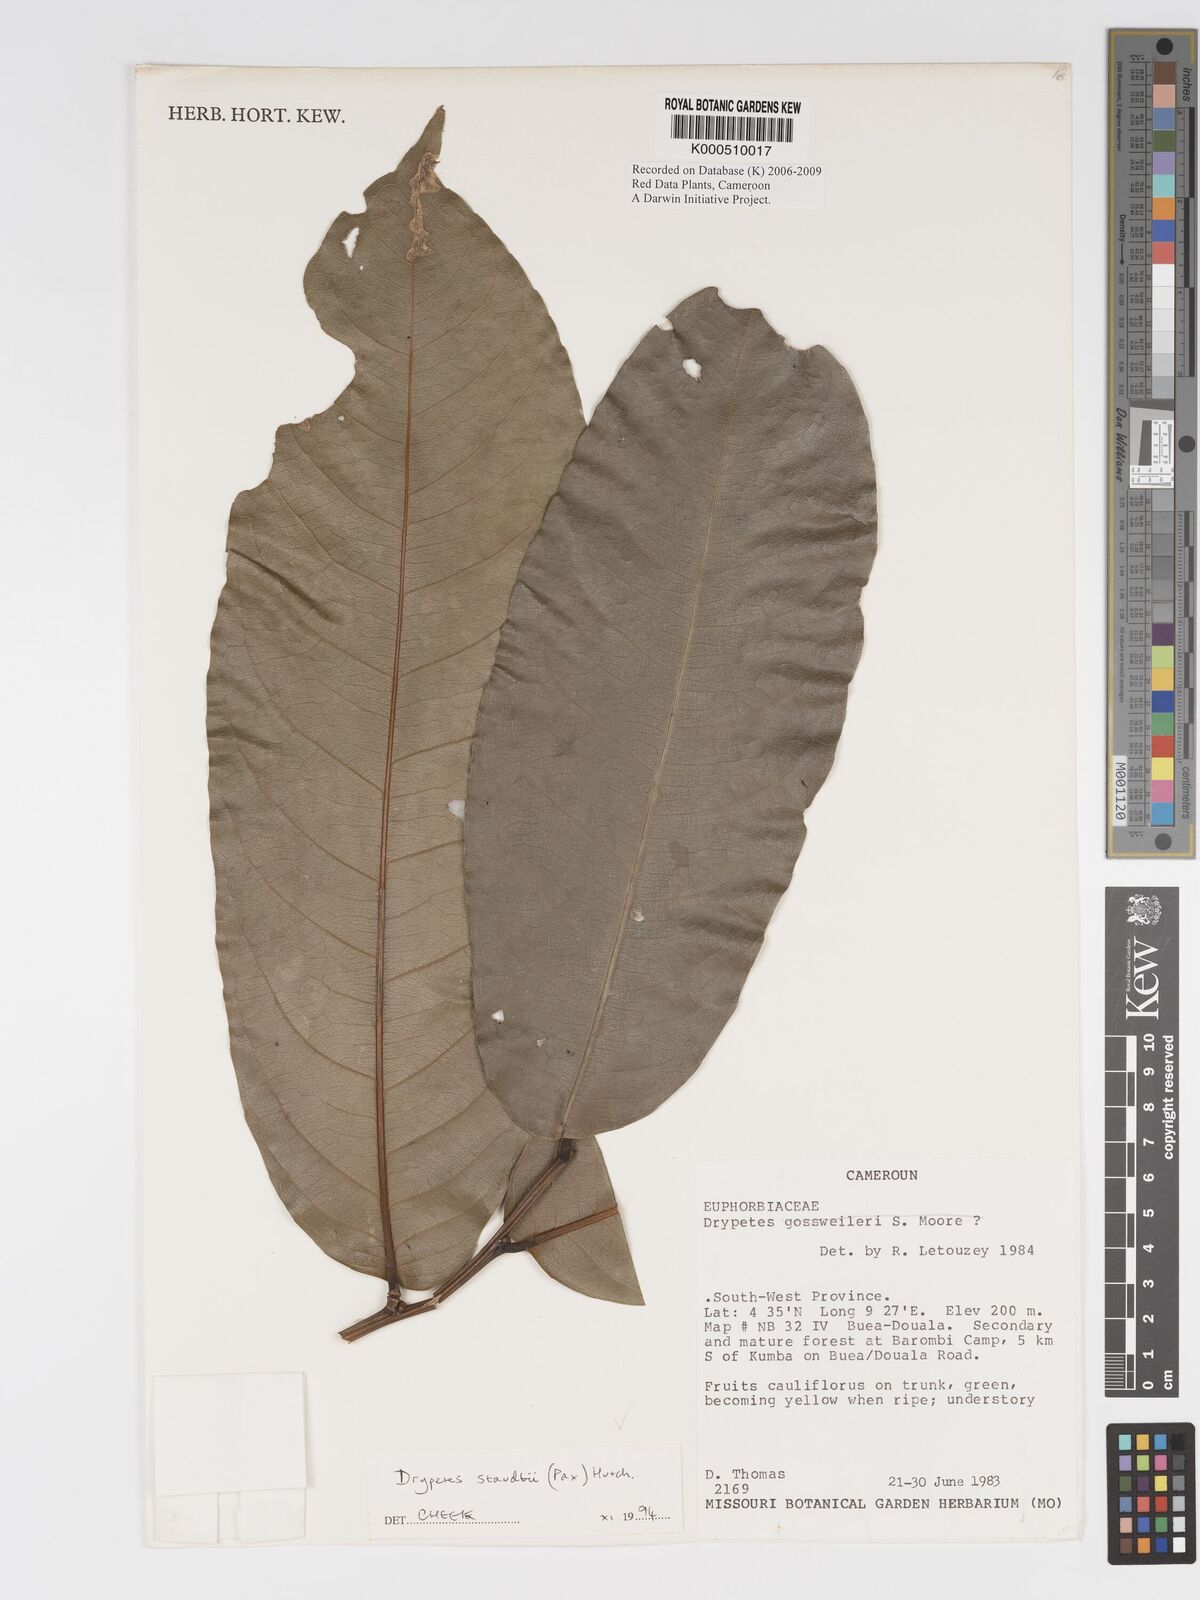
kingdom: Plantae
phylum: Tracheophyta
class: Magnoliopsida
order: Malpighiales
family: Putranjivaceae
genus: Drypetes
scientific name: Drypetes staudtii
